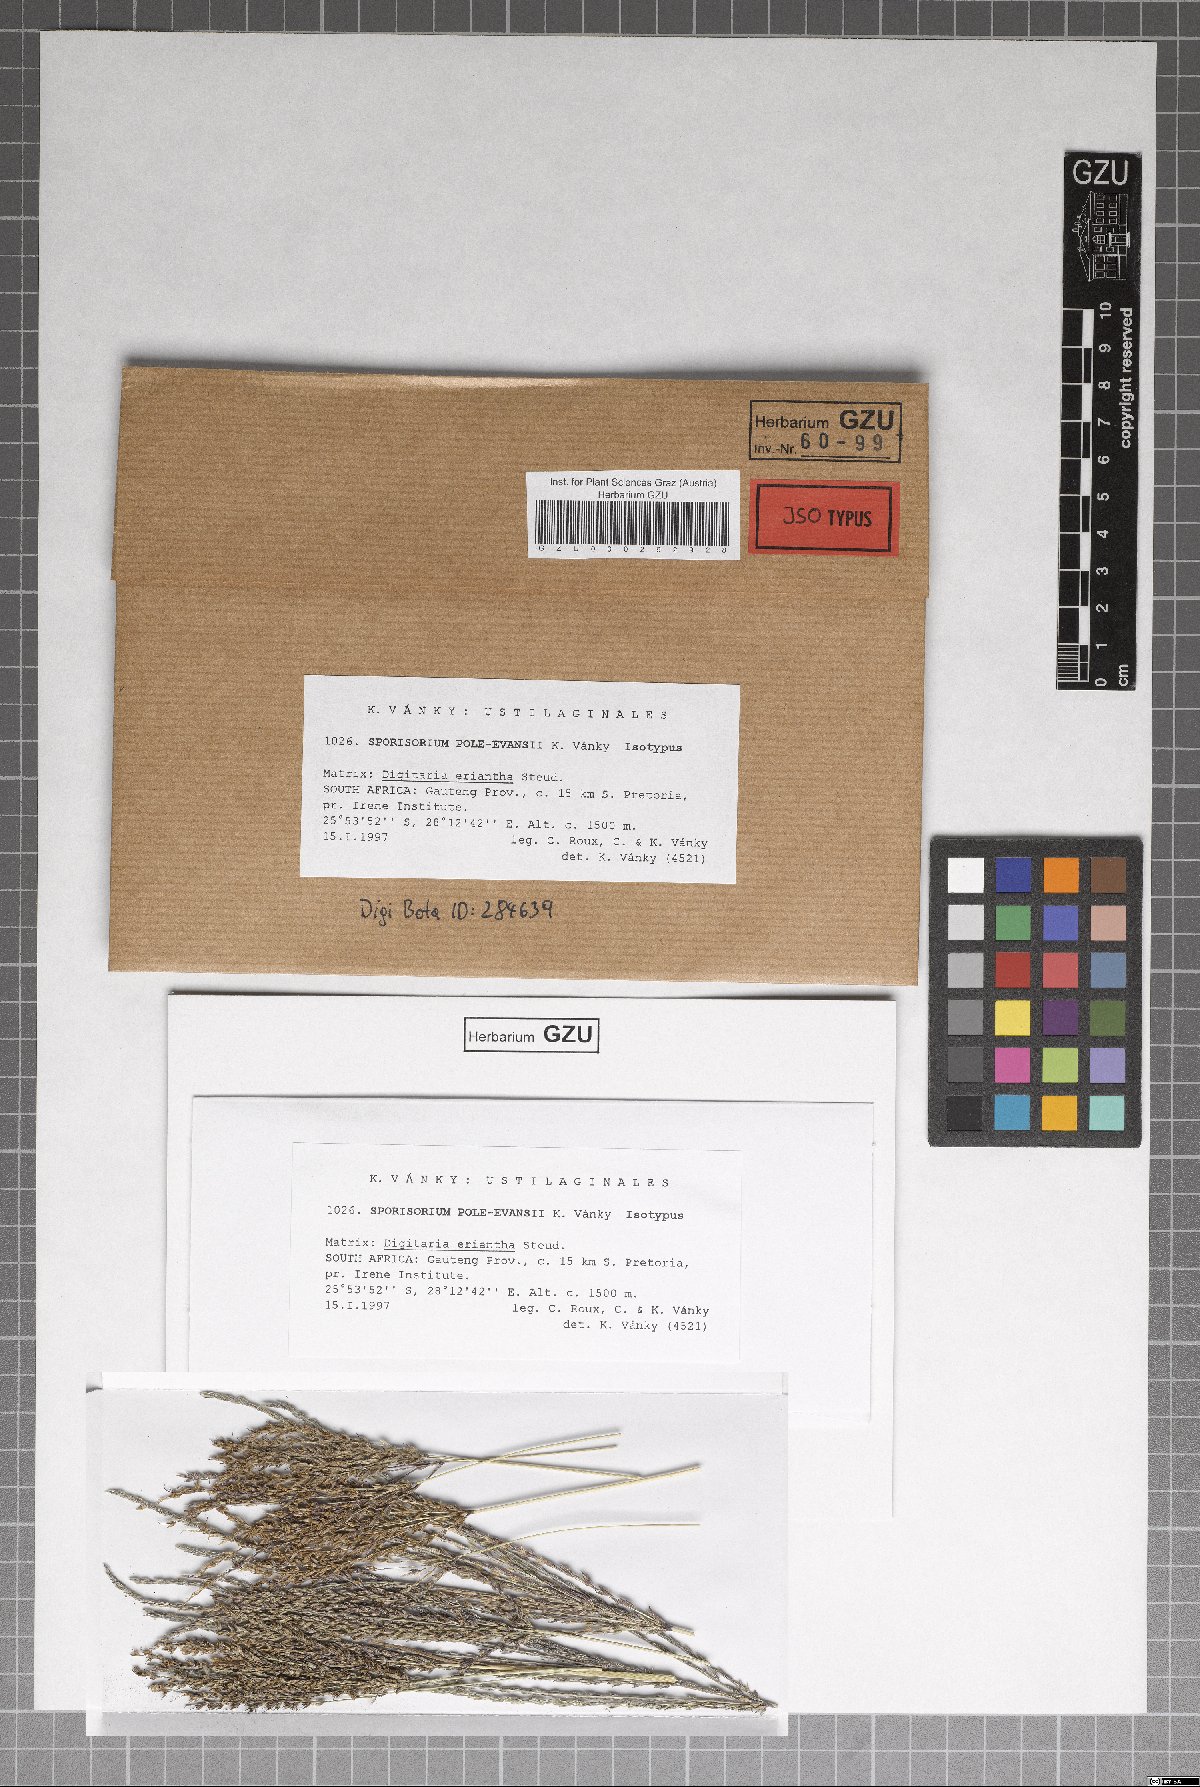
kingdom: Fungi
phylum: Basidiomycota
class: Ustilaginomycetes
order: Ustilaginales
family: Ustilaginaceae
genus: Sporisorium
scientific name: Sporisorium pole-evansii
